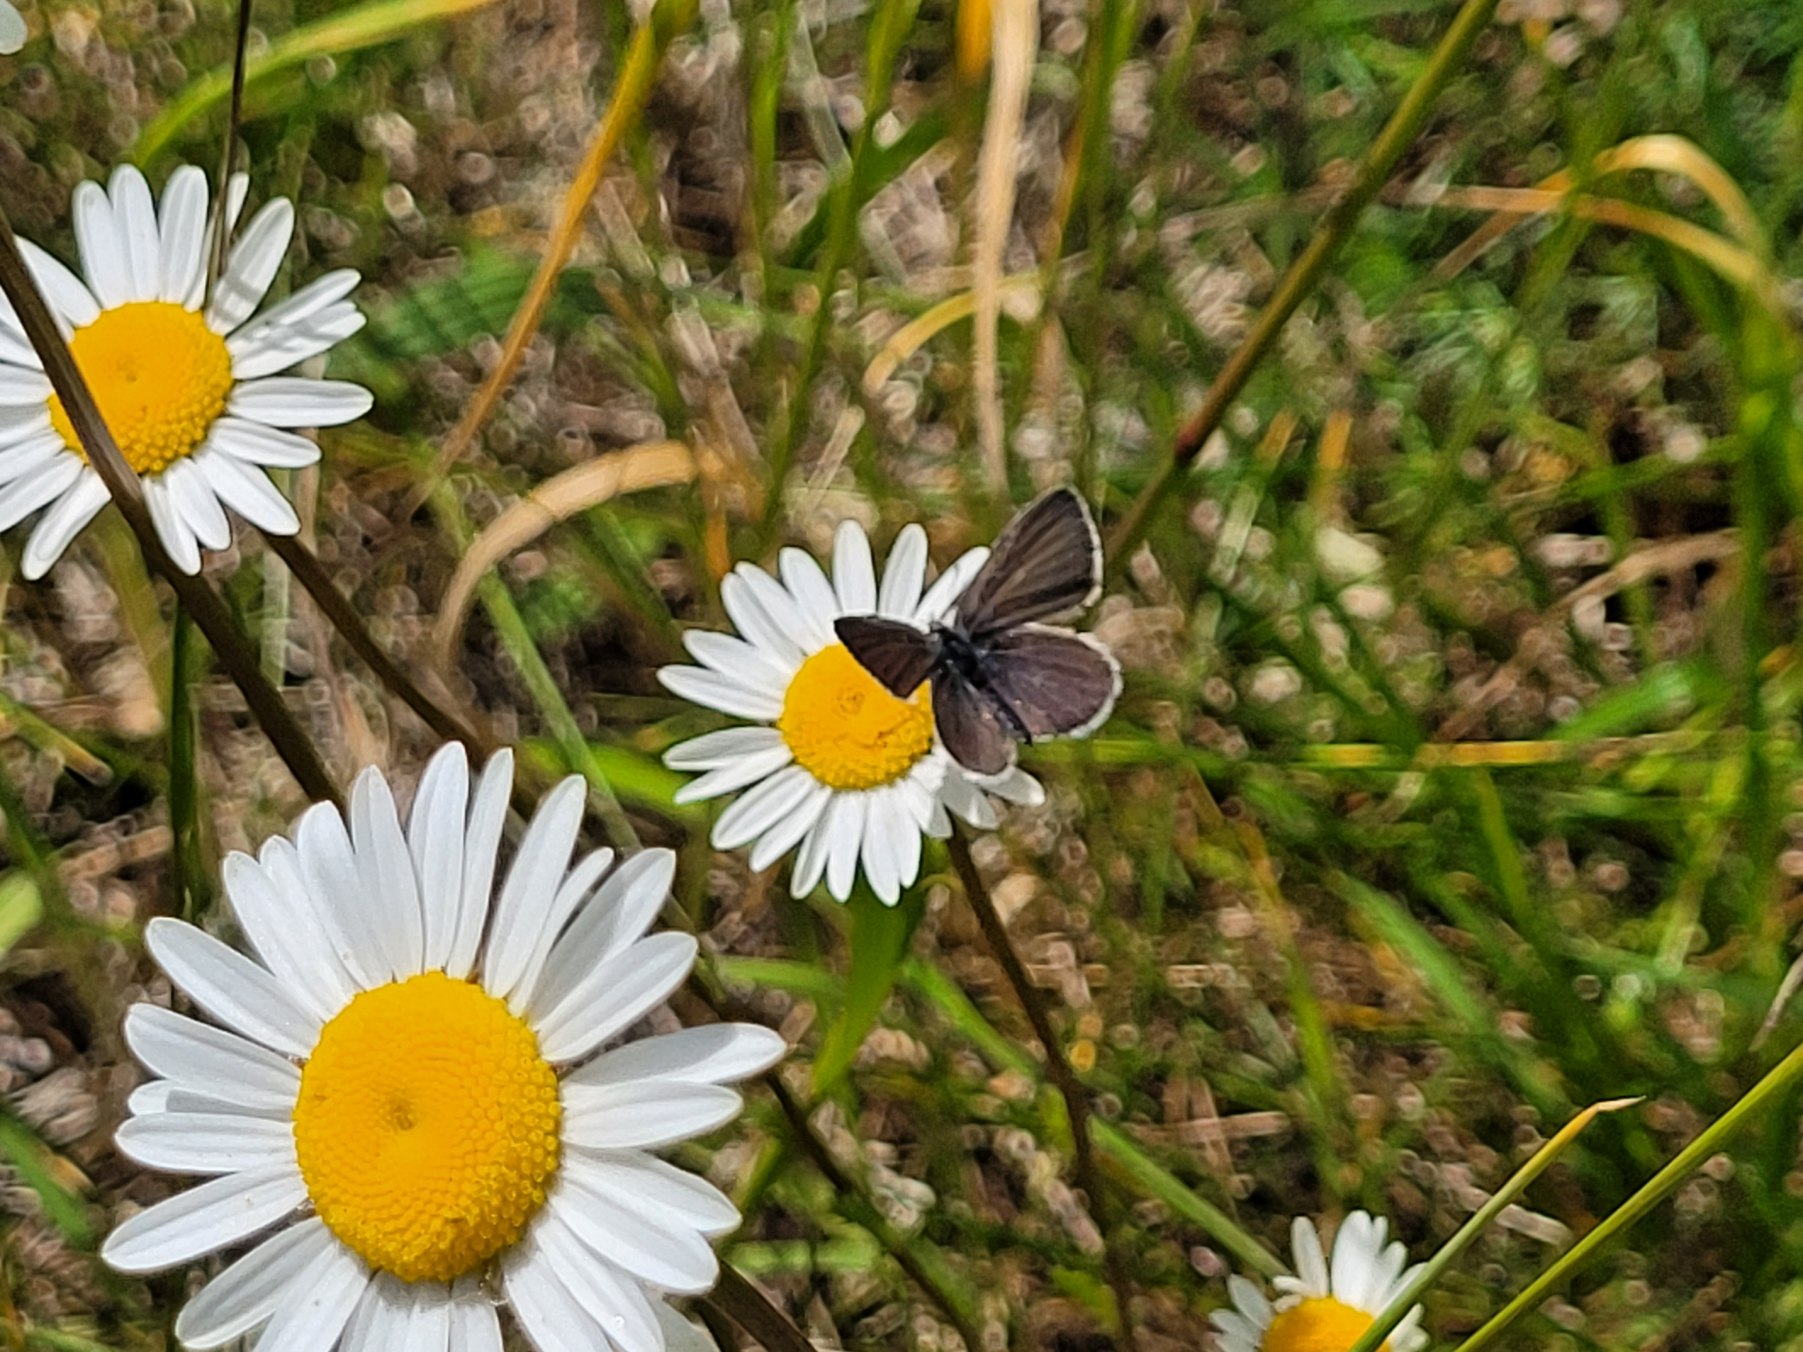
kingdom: Animalia
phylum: Arthropoda
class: Insecta
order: Lepidoptera
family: Lycaenidae
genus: Cupido
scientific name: Cupido minimus
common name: Dværgblåfugl
